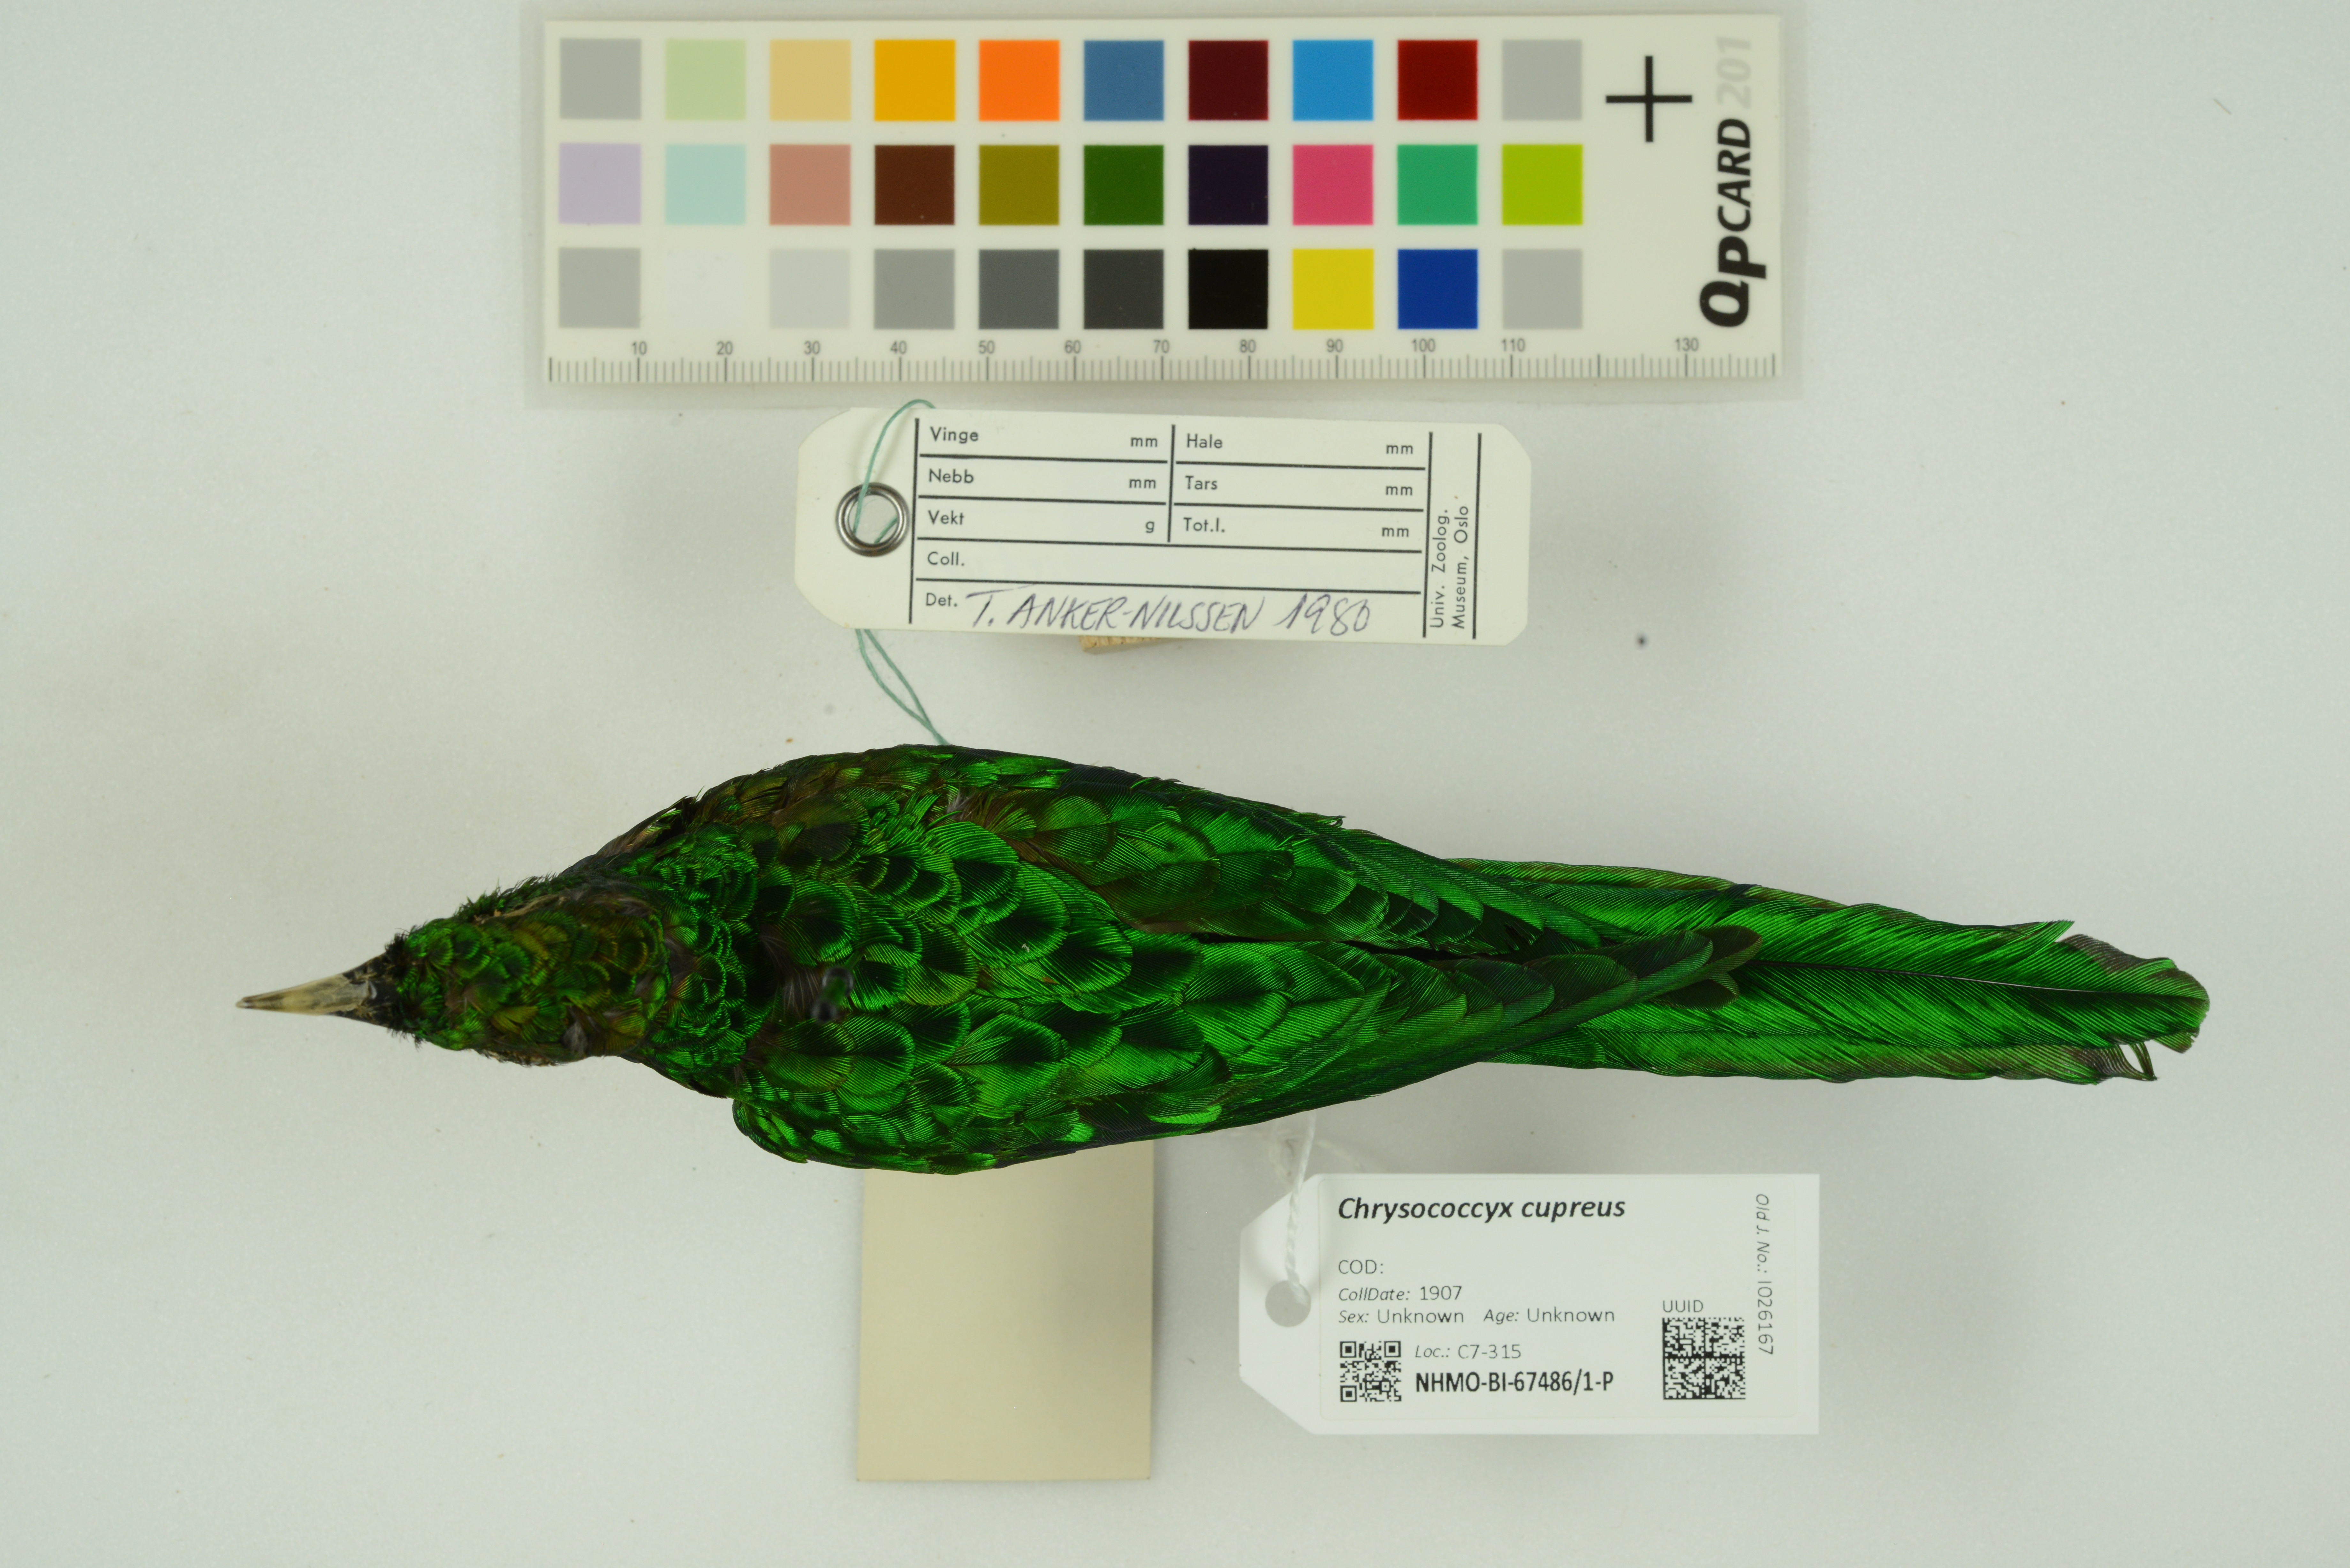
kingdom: Animalia
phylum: Chordata
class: Aves
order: Cuculiformes
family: Cuculidae
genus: Chrysococcyx
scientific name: Chrysococcyx cupreus
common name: African emerald cuckoo
